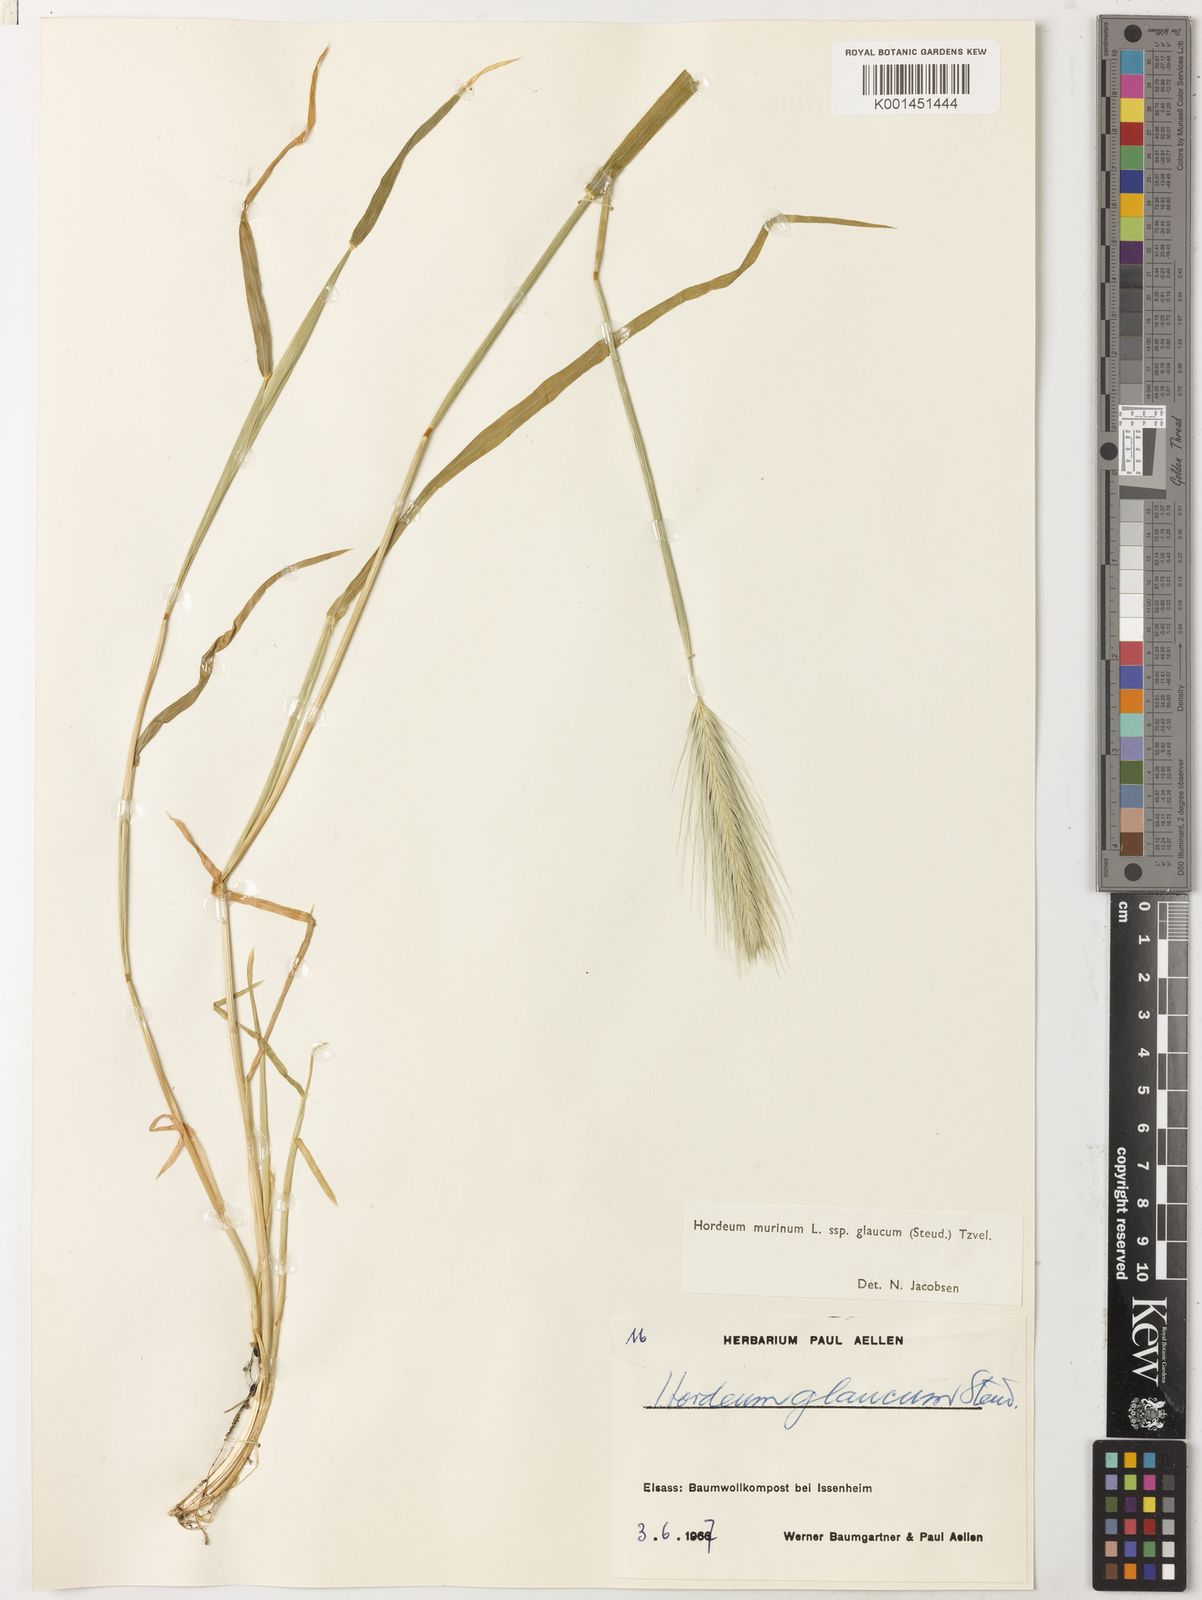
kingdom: Plantae
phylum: Tracheophyta
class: Liliopsida
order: Poales
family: Poaceae
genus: Hordeum
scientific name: Hordeum murinum
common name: Wall barley
